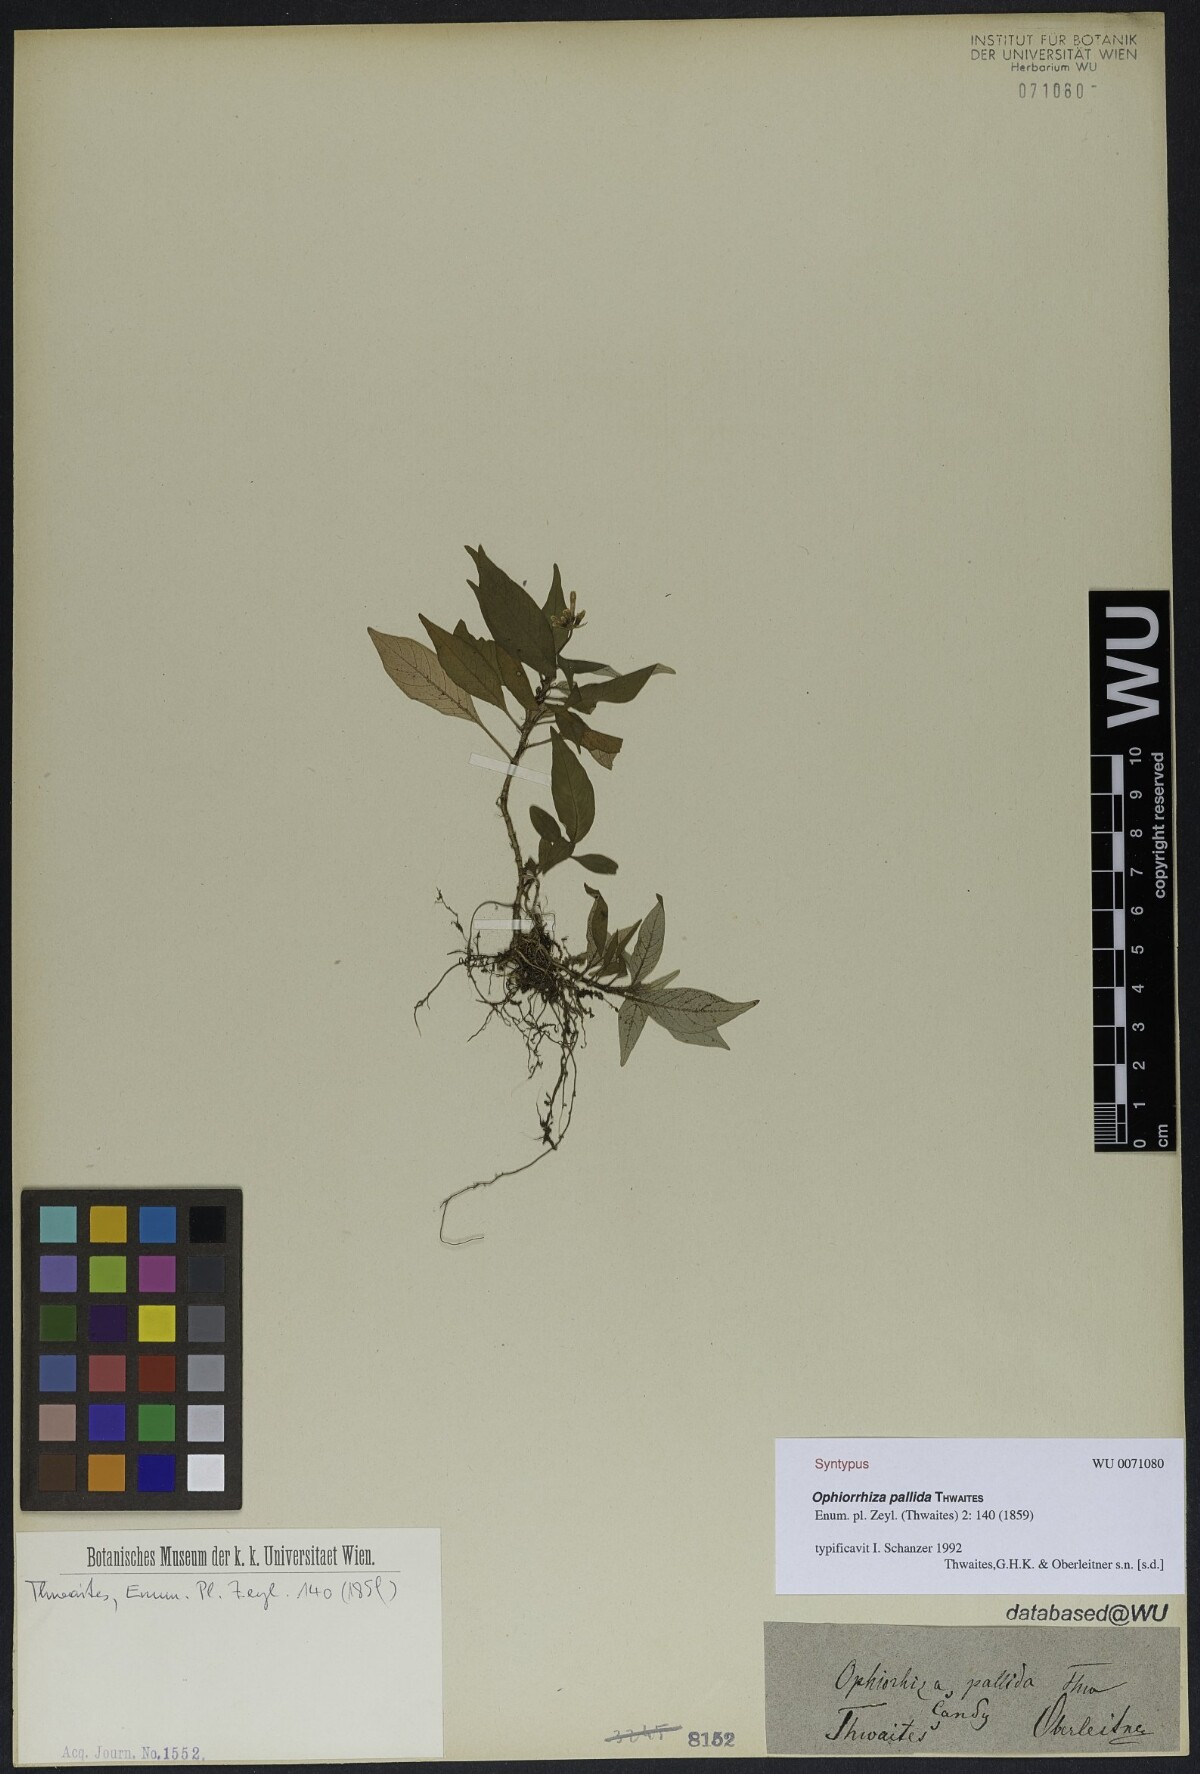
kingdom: Plantae
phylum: Tracheophyta
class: Magnoliopsida
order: Lamiales
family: Gesneriaceae
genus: Nematanthus
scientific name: Nematanthus wettsteinii
